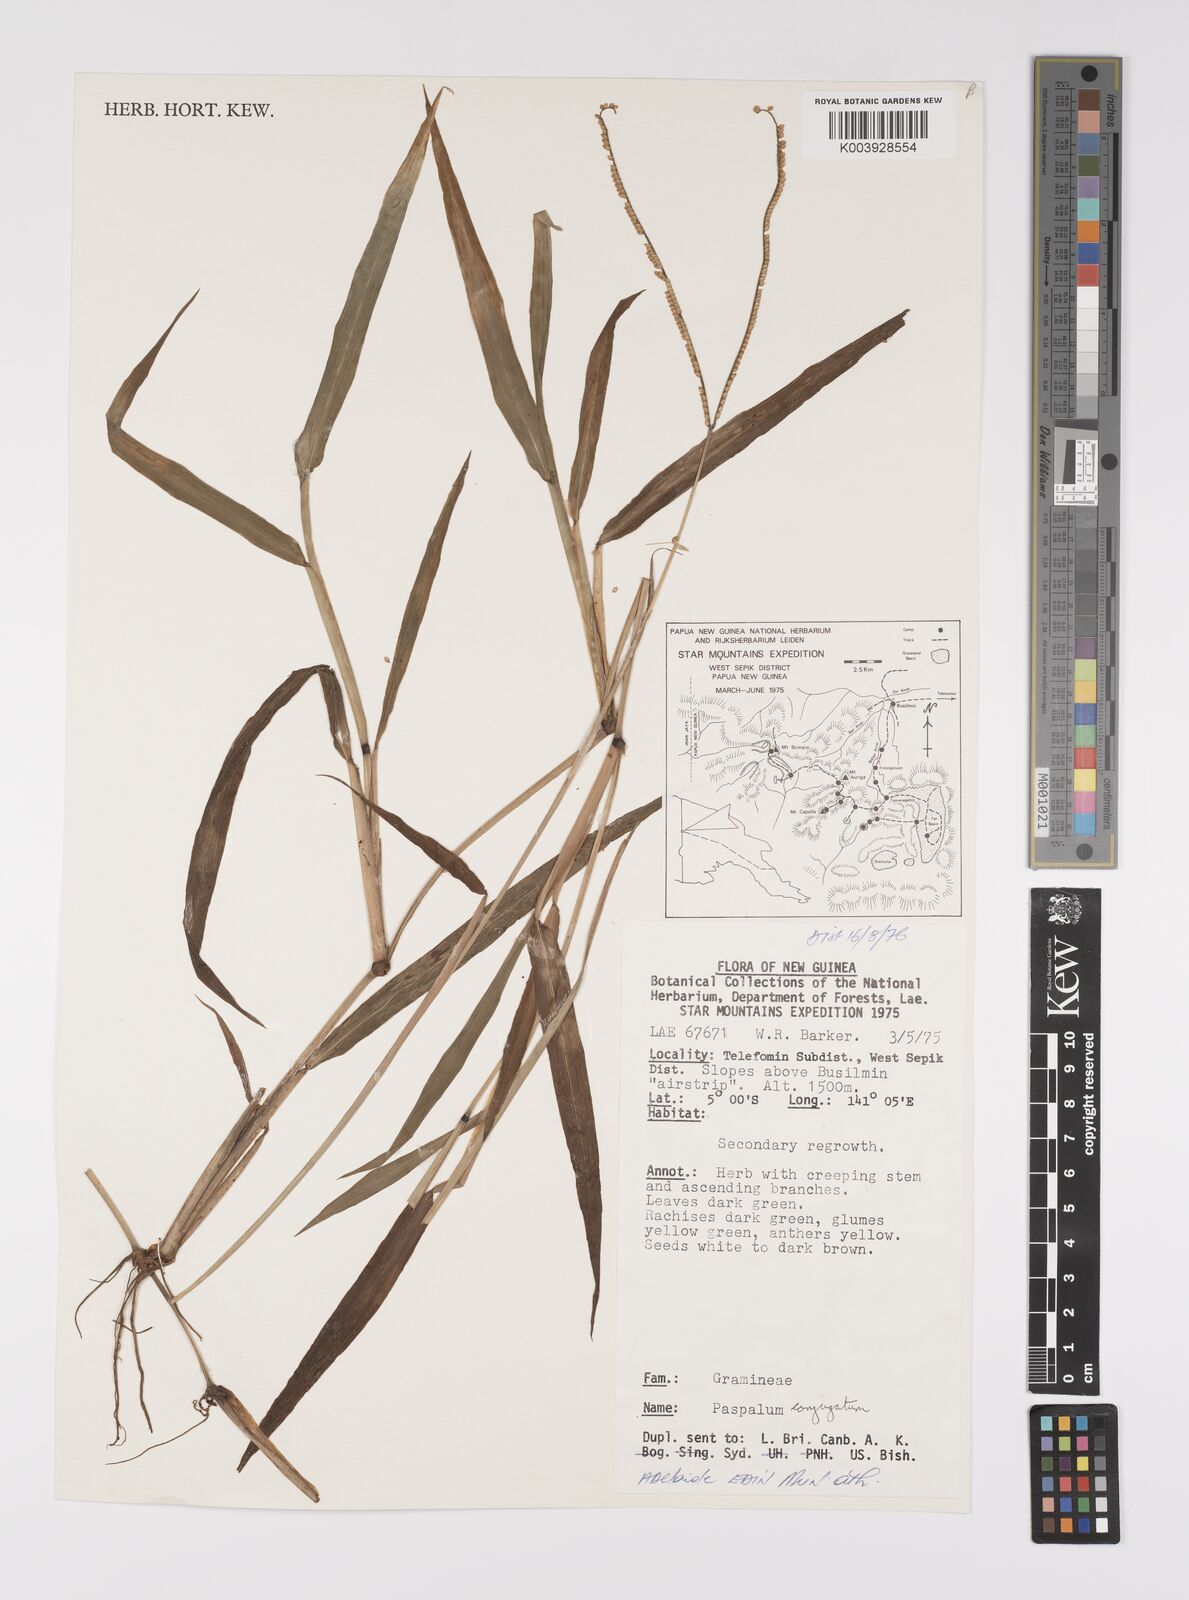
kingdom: Plantae
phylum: Tracheophyta
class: Liliopsida
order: Poales
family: Poaceae
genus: Paspalum
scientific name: Paspalum conjugatum
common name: Hilograss
